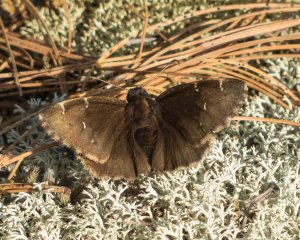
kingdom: Animalia
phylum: Arthropoda
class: Insecta
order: Lepidoptera
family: Hesperiidae
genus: Autochton
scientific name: Autochton
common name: Northern Cloudywing
